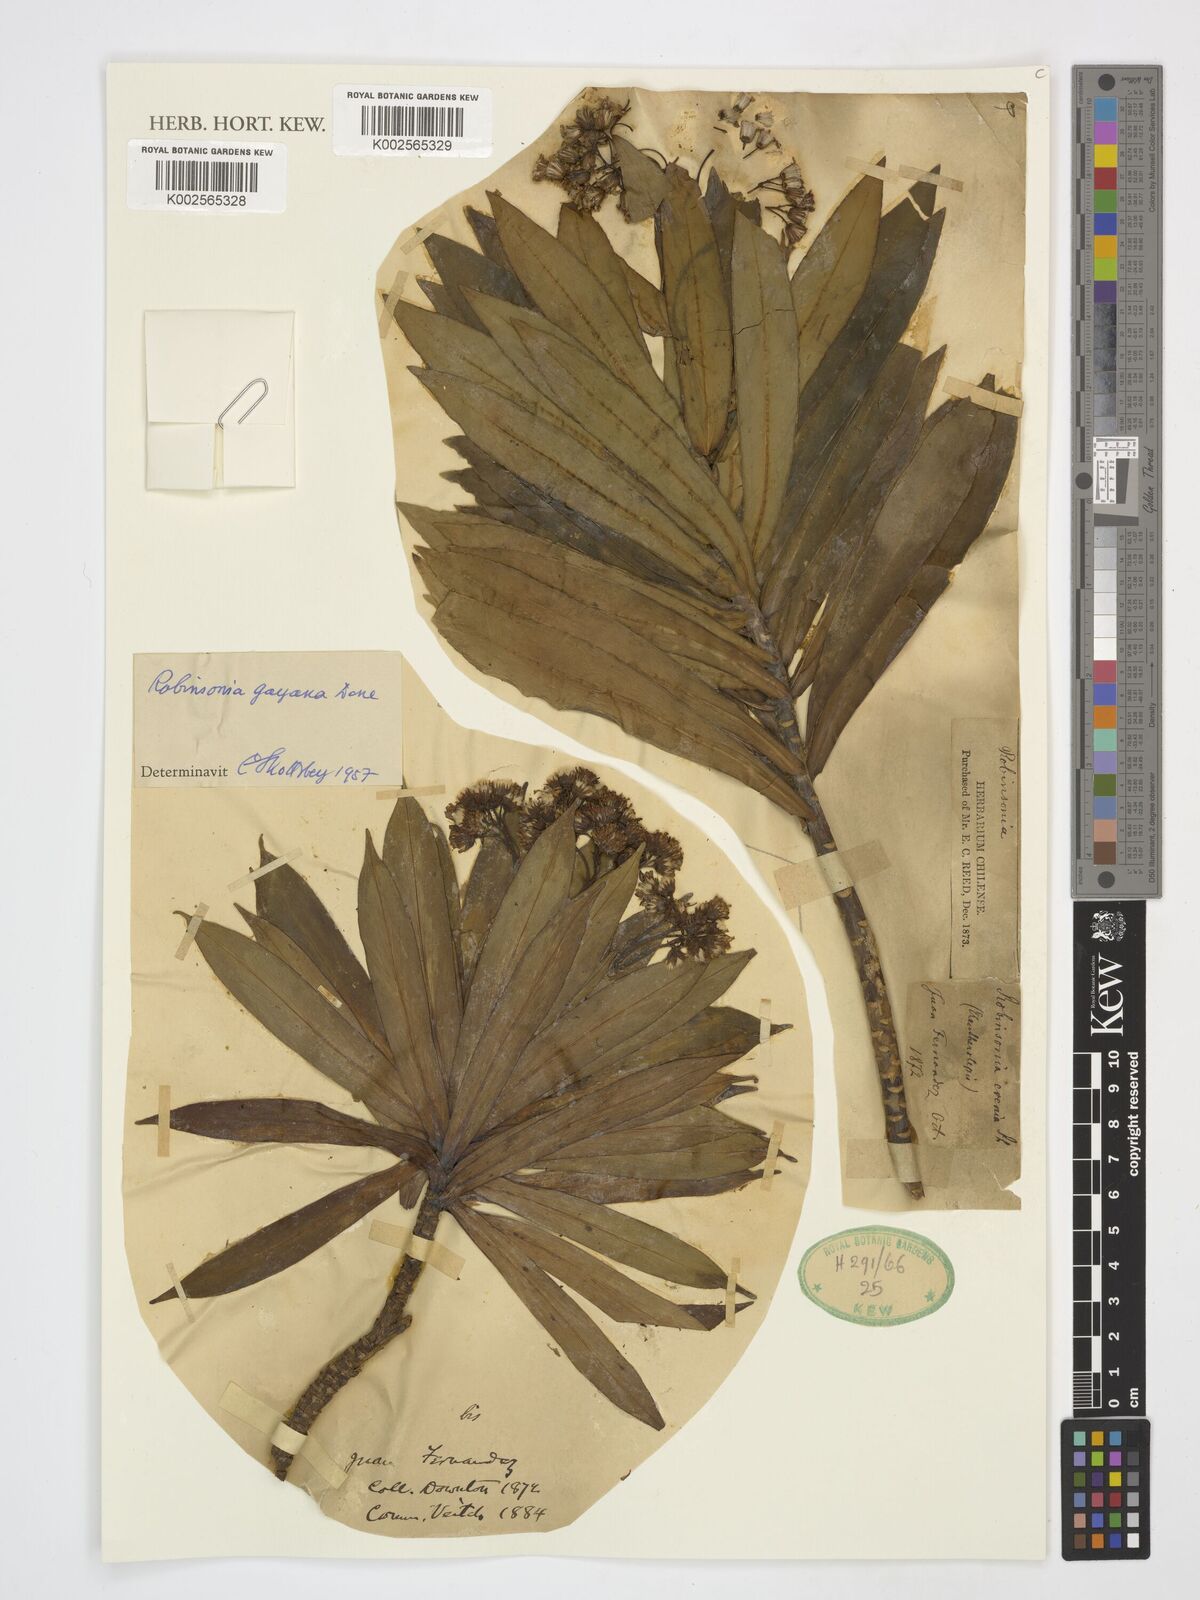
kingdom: Plantae
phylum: Tracheophyta
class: Magnoliopsida
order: Asterales
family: Asteraceae
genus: Robinsonia
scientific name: Robinsonia gayana
